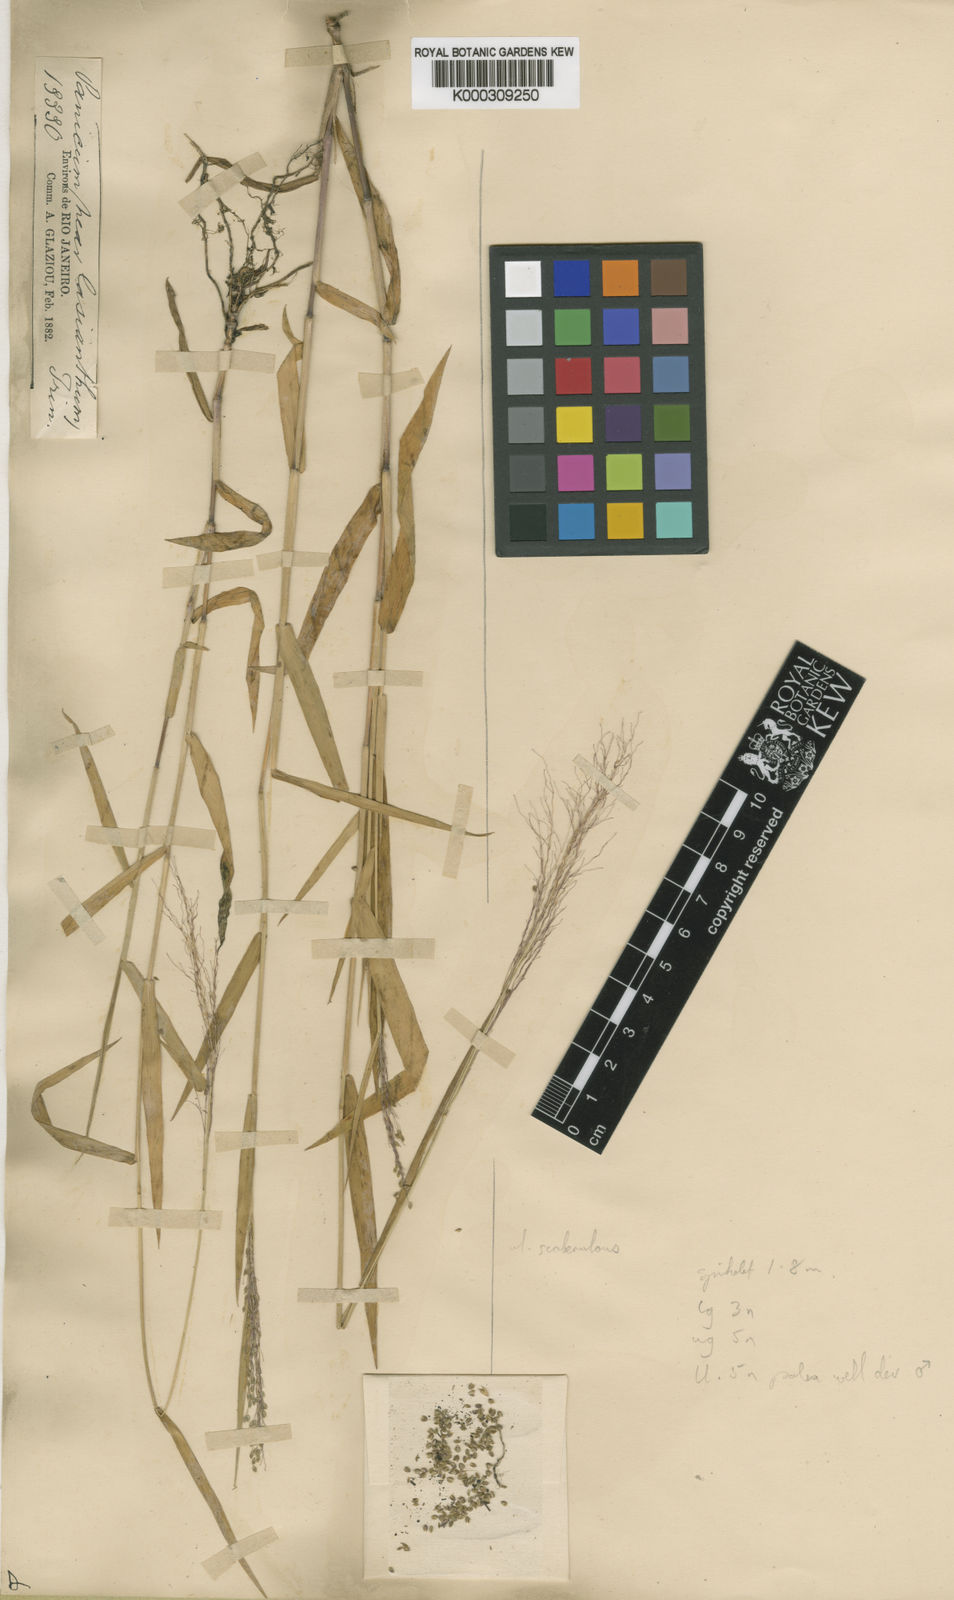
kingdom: Plantae
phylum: Tracheophyta
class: Liliopsida
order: Poales
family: Poaceae
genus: Trichanthecium
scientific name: Trichanthecium pseudisachne
